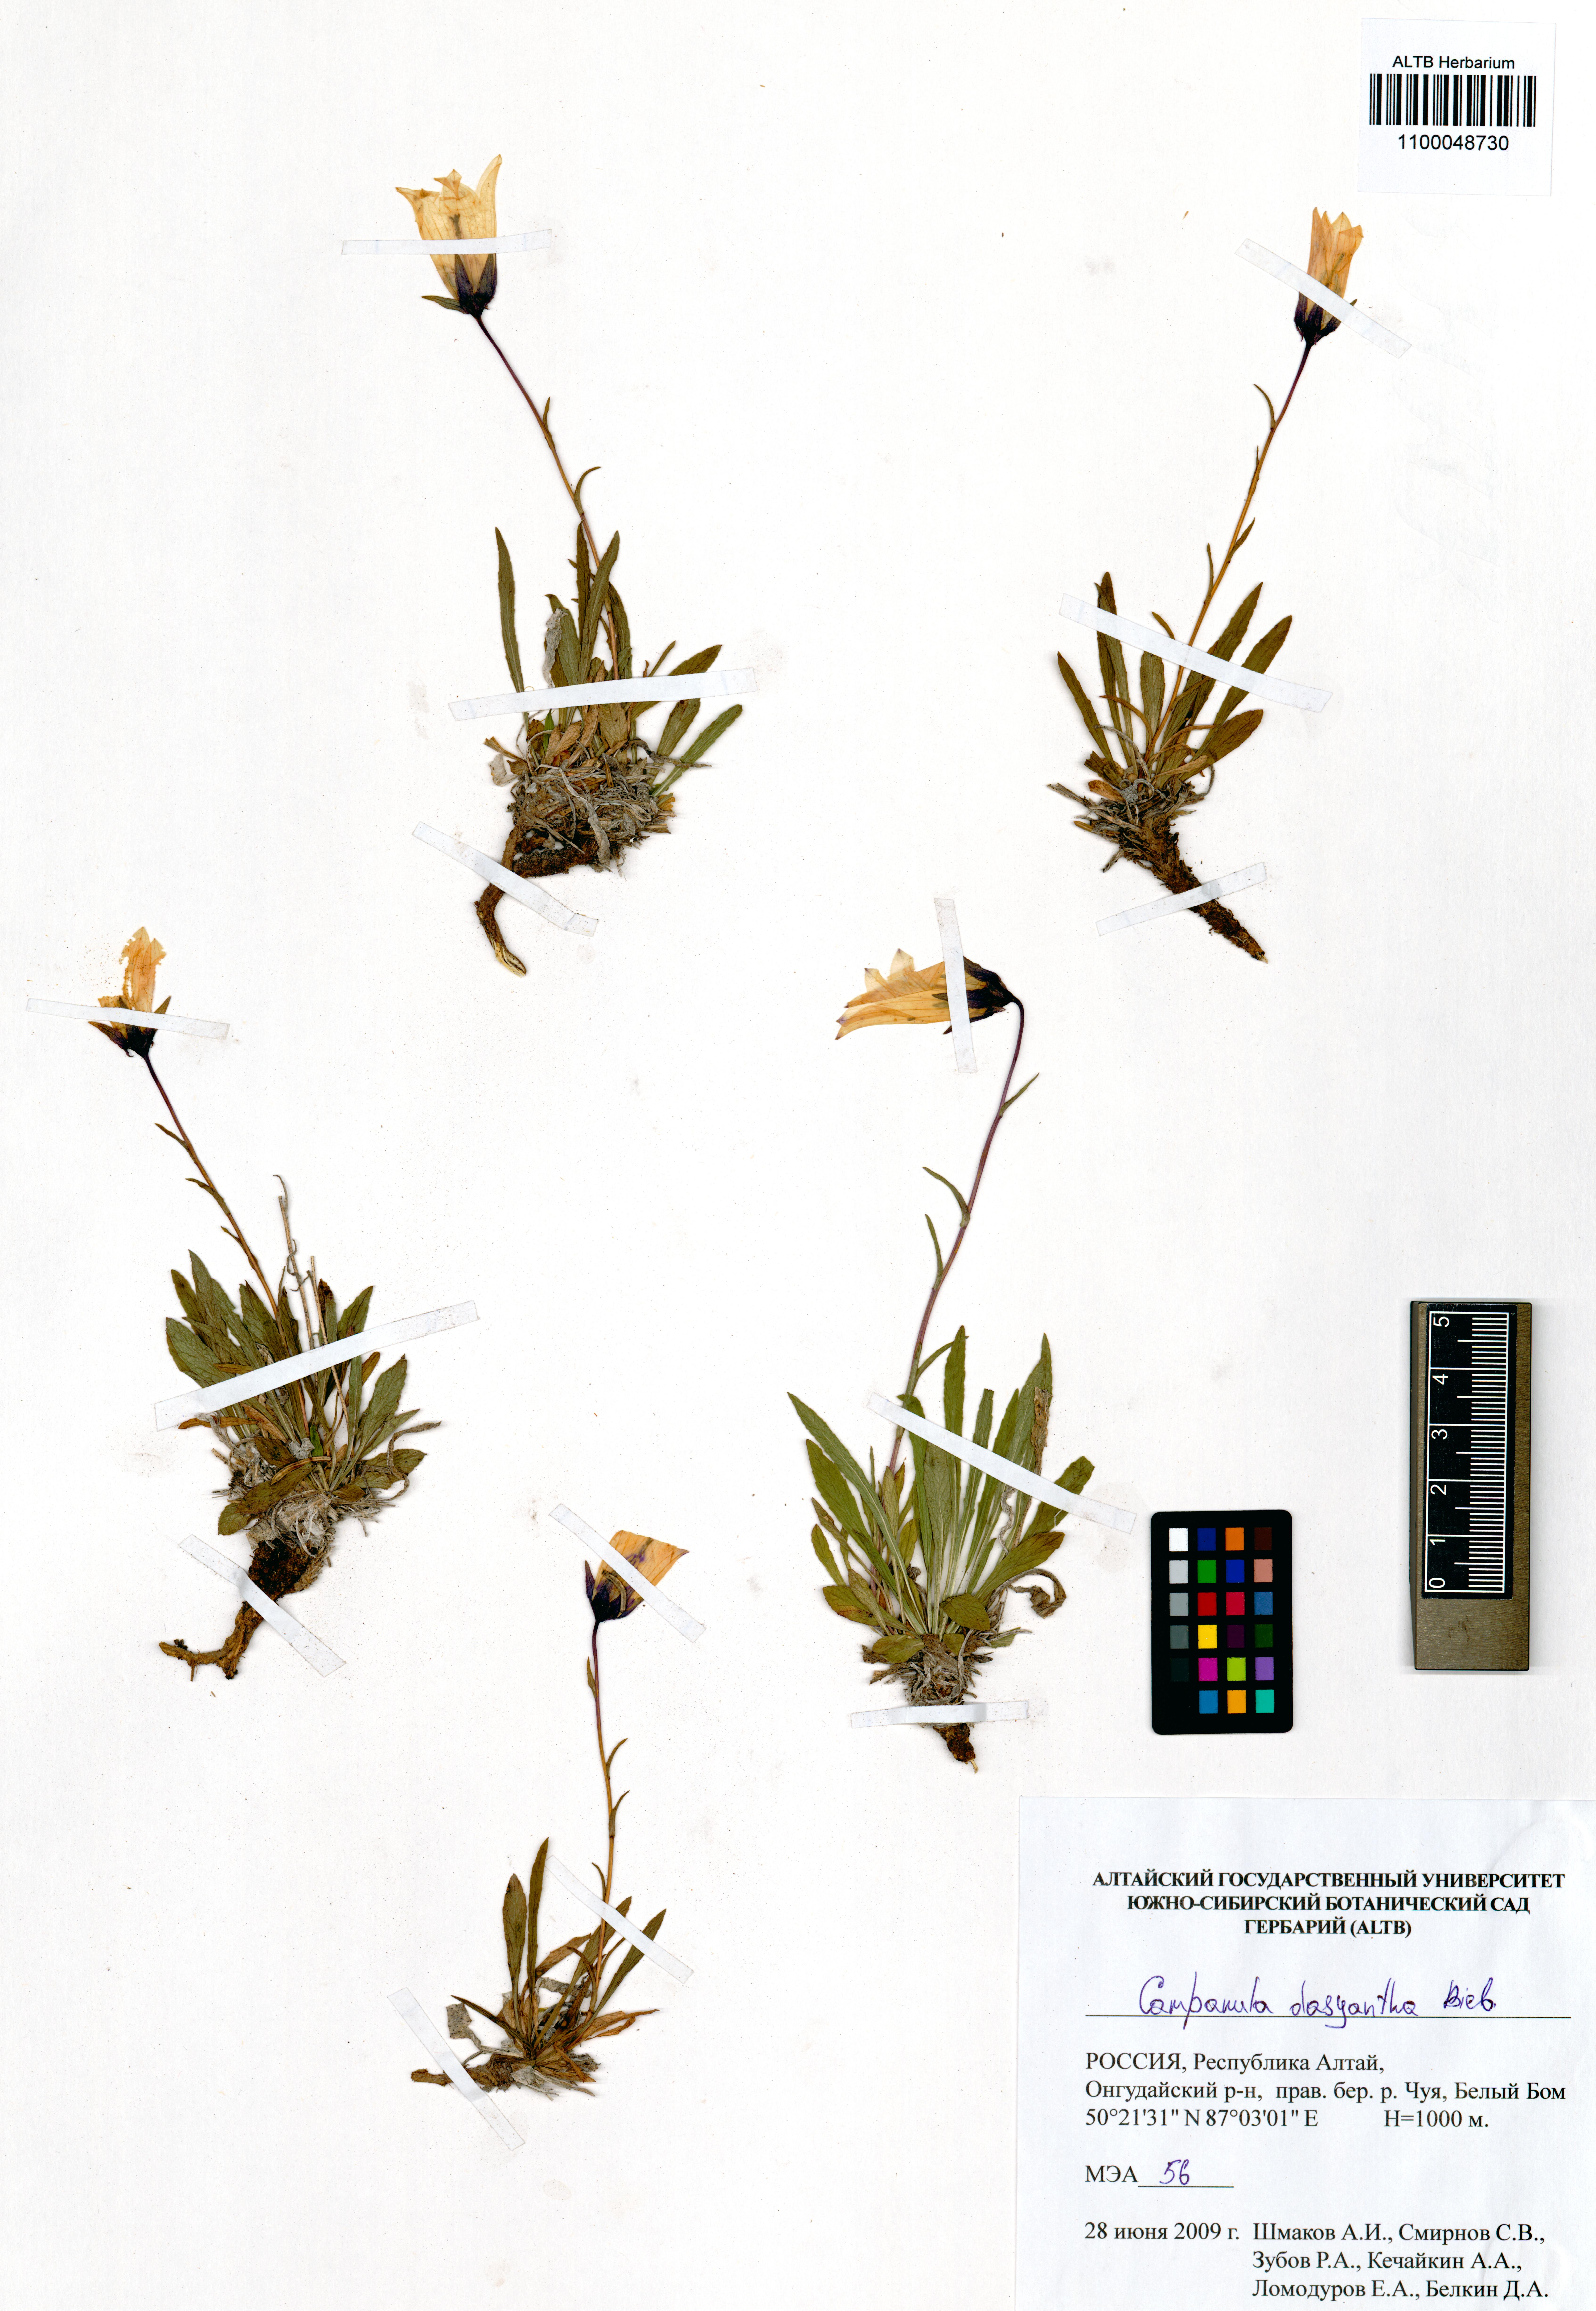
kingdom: Plantae
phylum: Tracheophyta
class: Magnoliopsida
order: Asterales
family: Campanulaceae
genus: Campanula
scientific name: Campanula dasyantha
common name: Hairyflower bellflower
